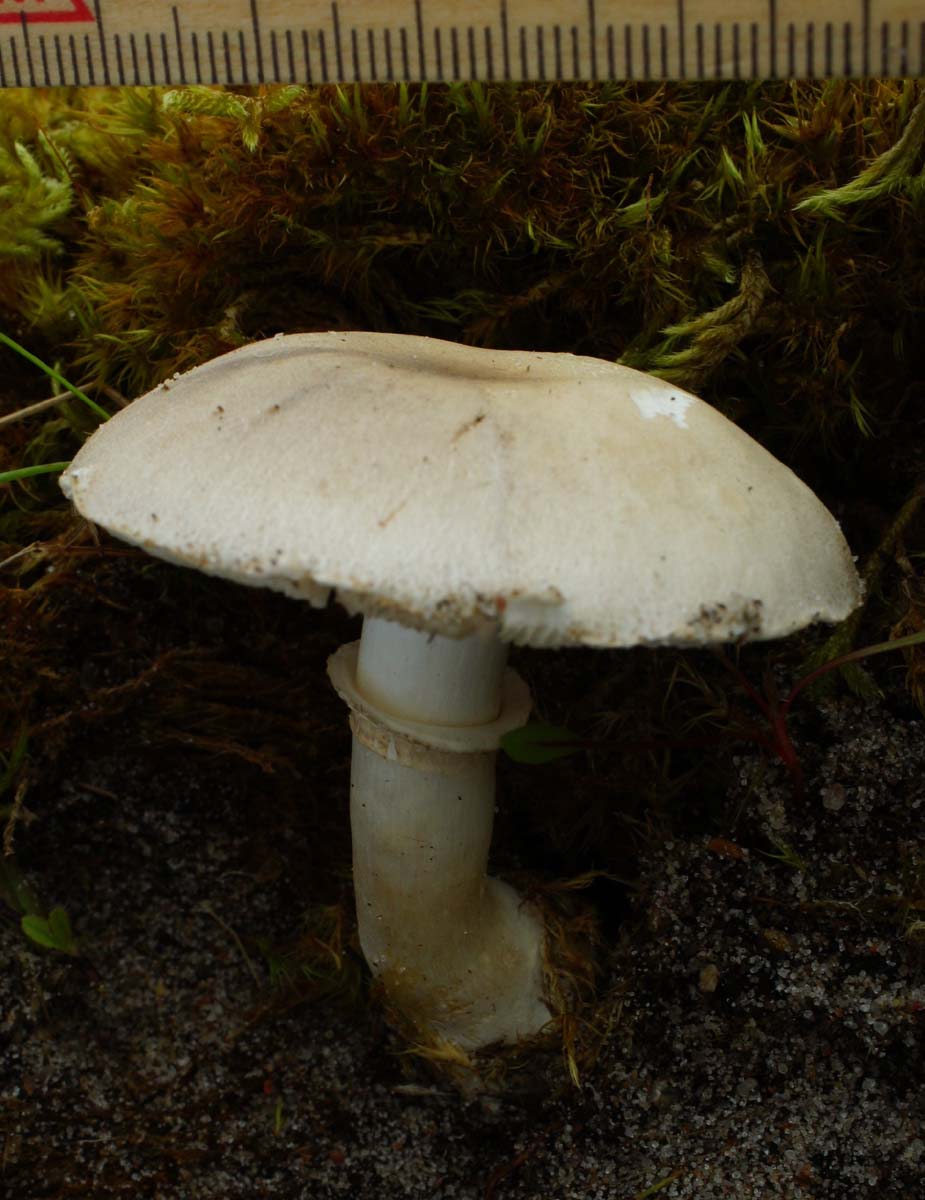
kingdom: Fungi
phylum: Basidiomycota
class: Agaricomycetes
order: Agaricales
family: Agaricaceae
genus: Leucoagaricus
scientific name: Leucoagaricus leucothites
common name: rosabladet silkehat
